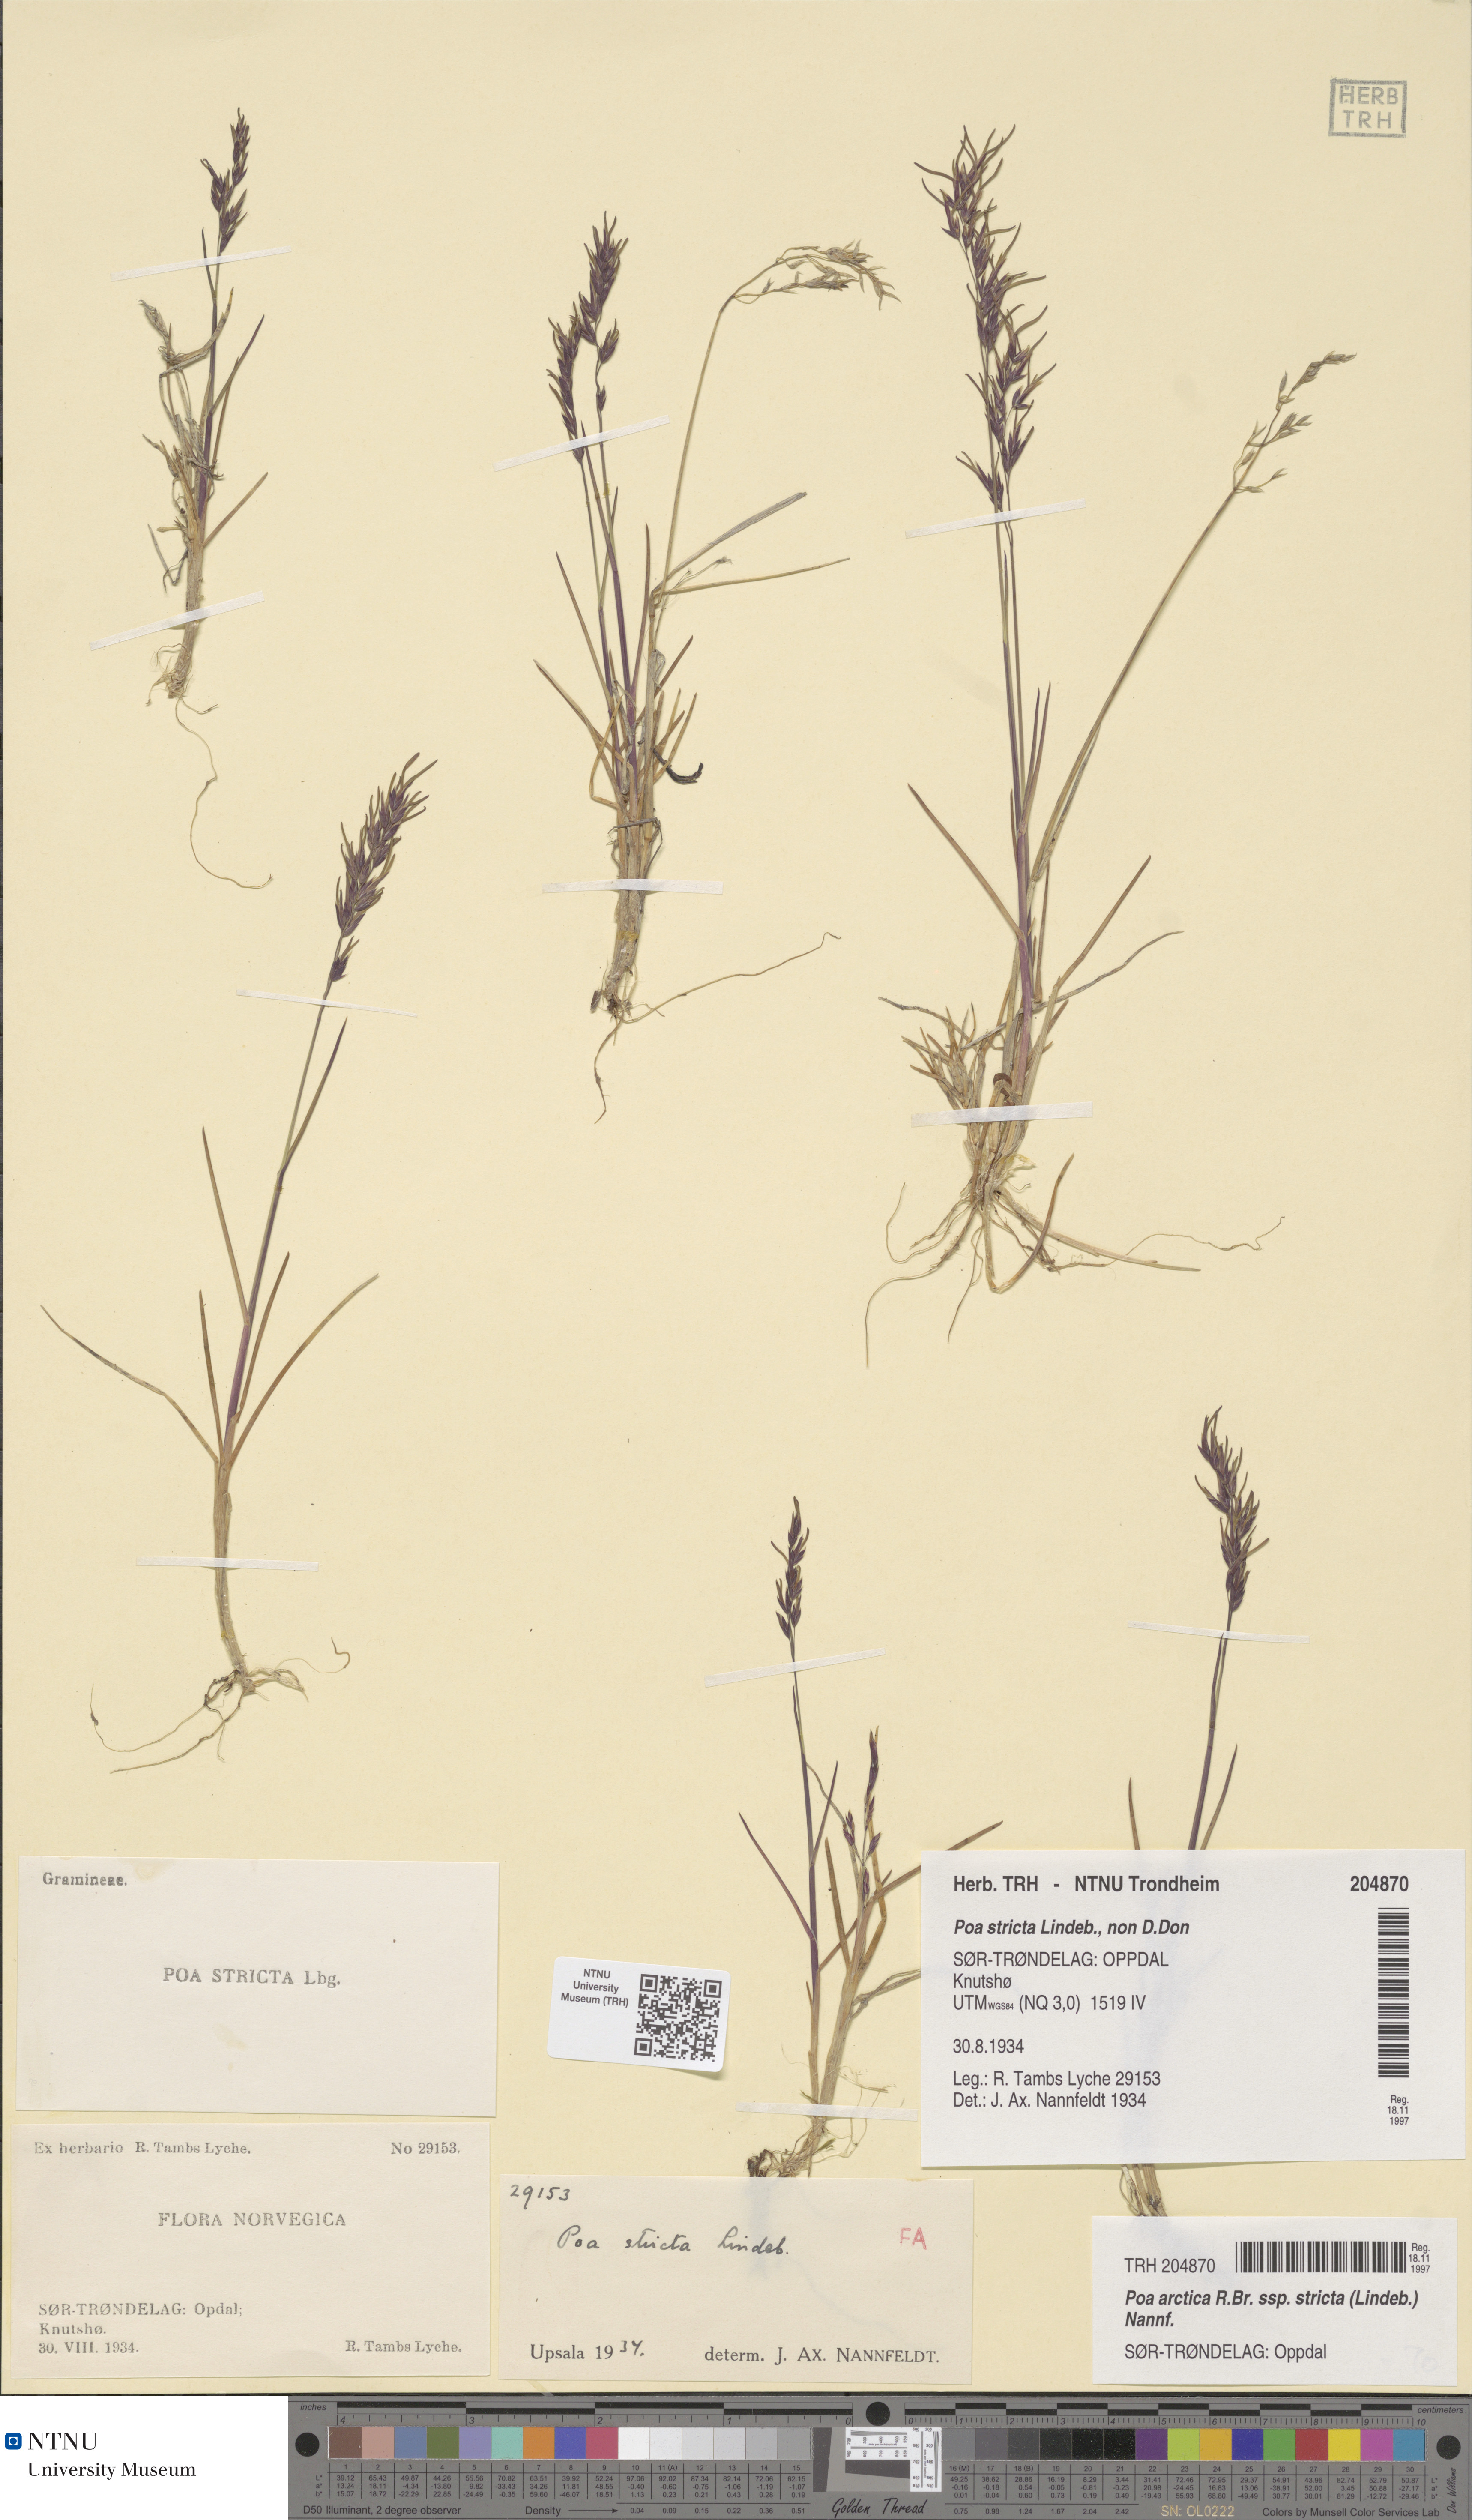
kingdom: Plantae
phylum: Tracheophyta
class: Liliopsida
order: Poales
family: Poaceae
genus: Poa
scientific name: Poa lindebergii
